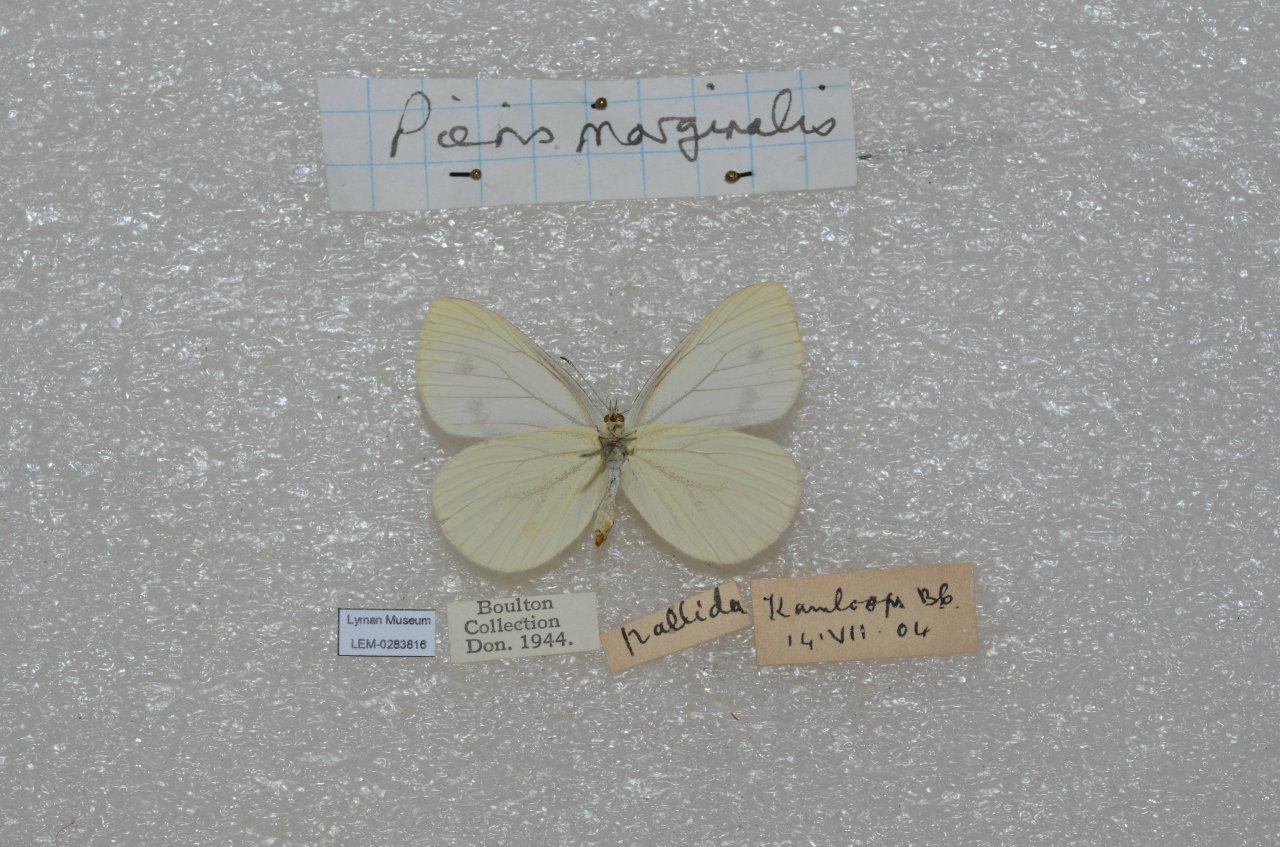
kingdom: Animalia
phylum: Arthropoda
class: Insecta
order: Lepidoptera
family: Pieridae
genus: Pieris
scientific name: Pieris marginalis
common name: Margined White
